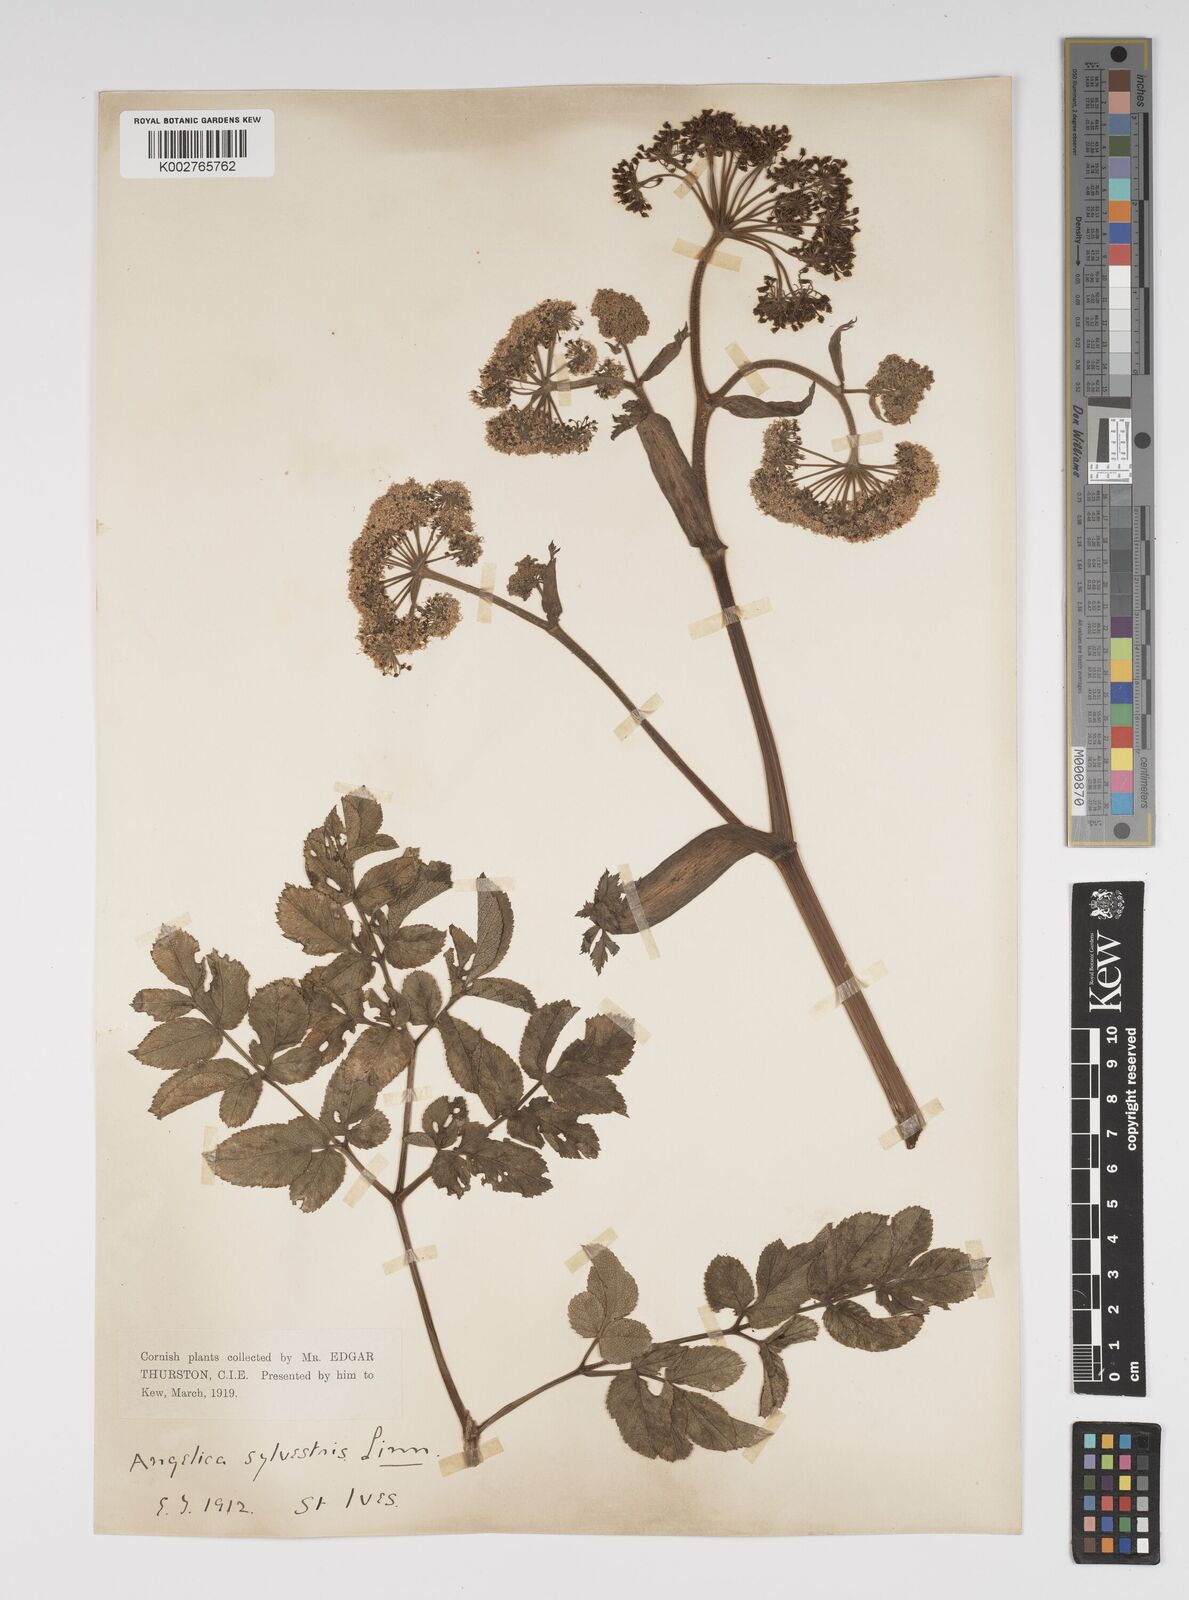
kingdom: Plantae
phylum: Tracheophyta
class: Magnoliopsida
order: Apiales
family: Apiaceae
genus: Angelica
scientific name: Angelica sylvestris
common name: Wild angelica
